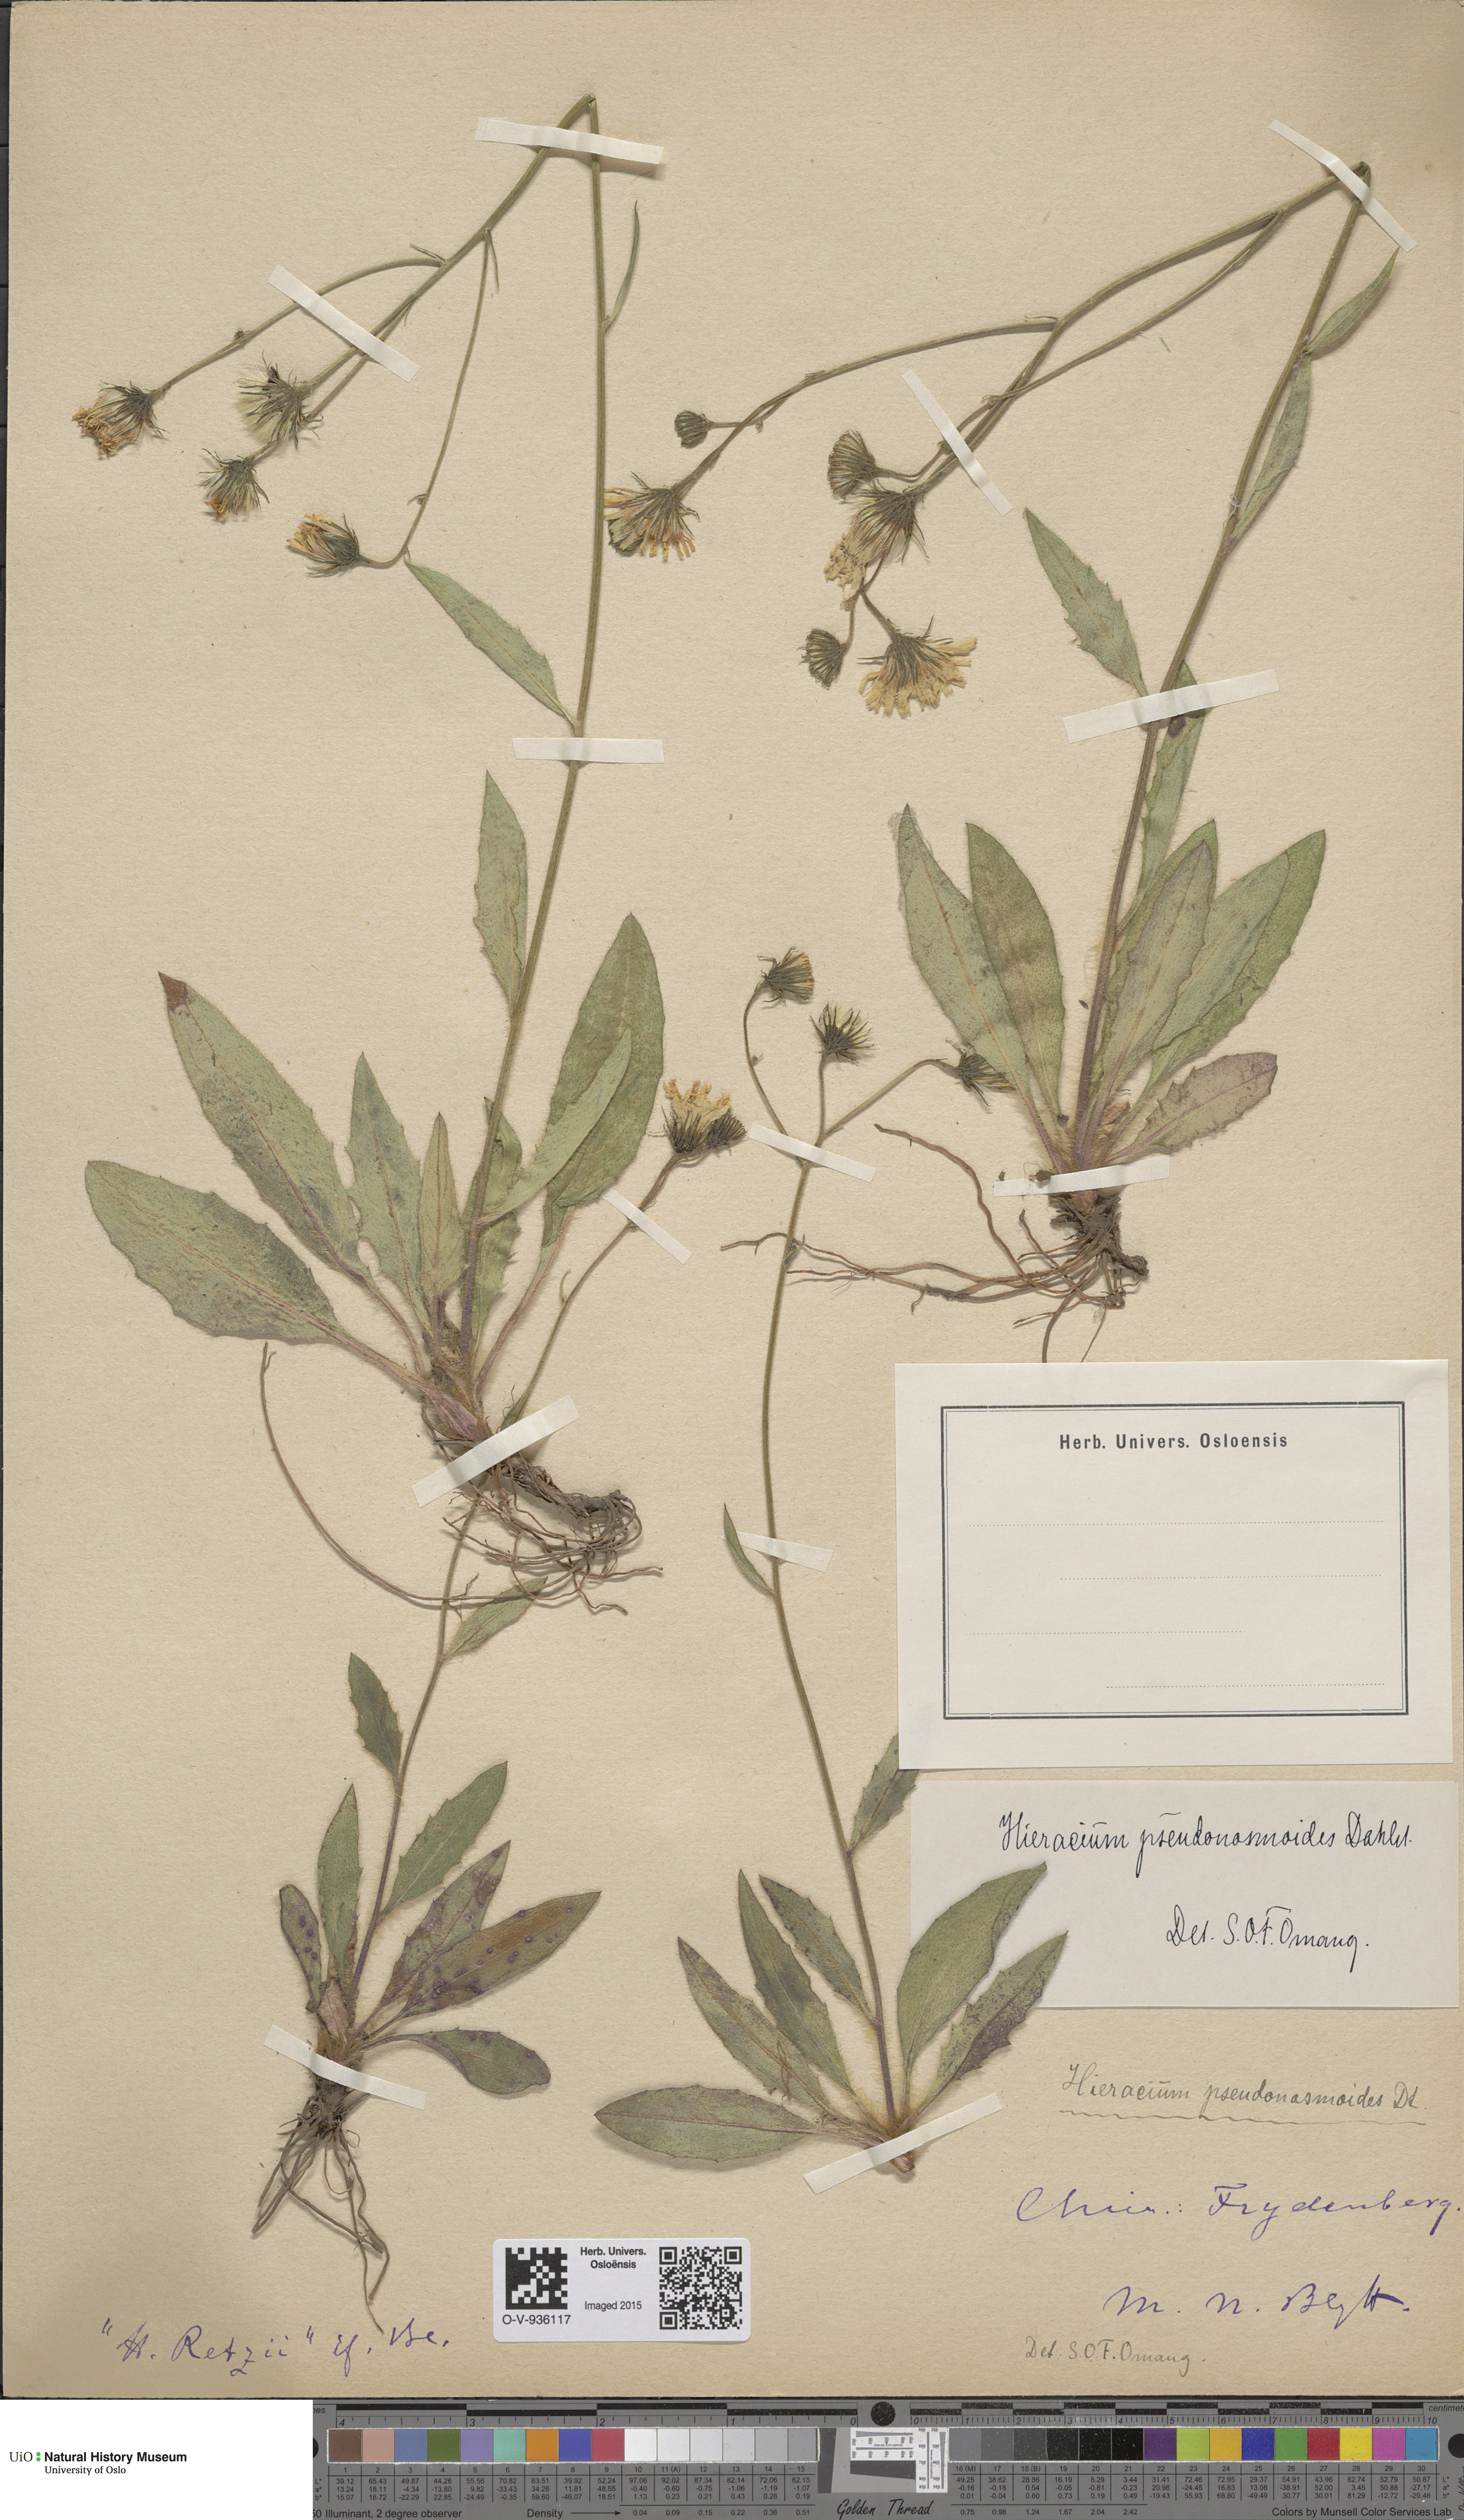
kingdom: Plantae
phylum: Tracheophyta
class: Magnoliopsida
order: Asterales
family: Asteraceae
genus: Hieracium
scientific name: Hieracium saxifragum
